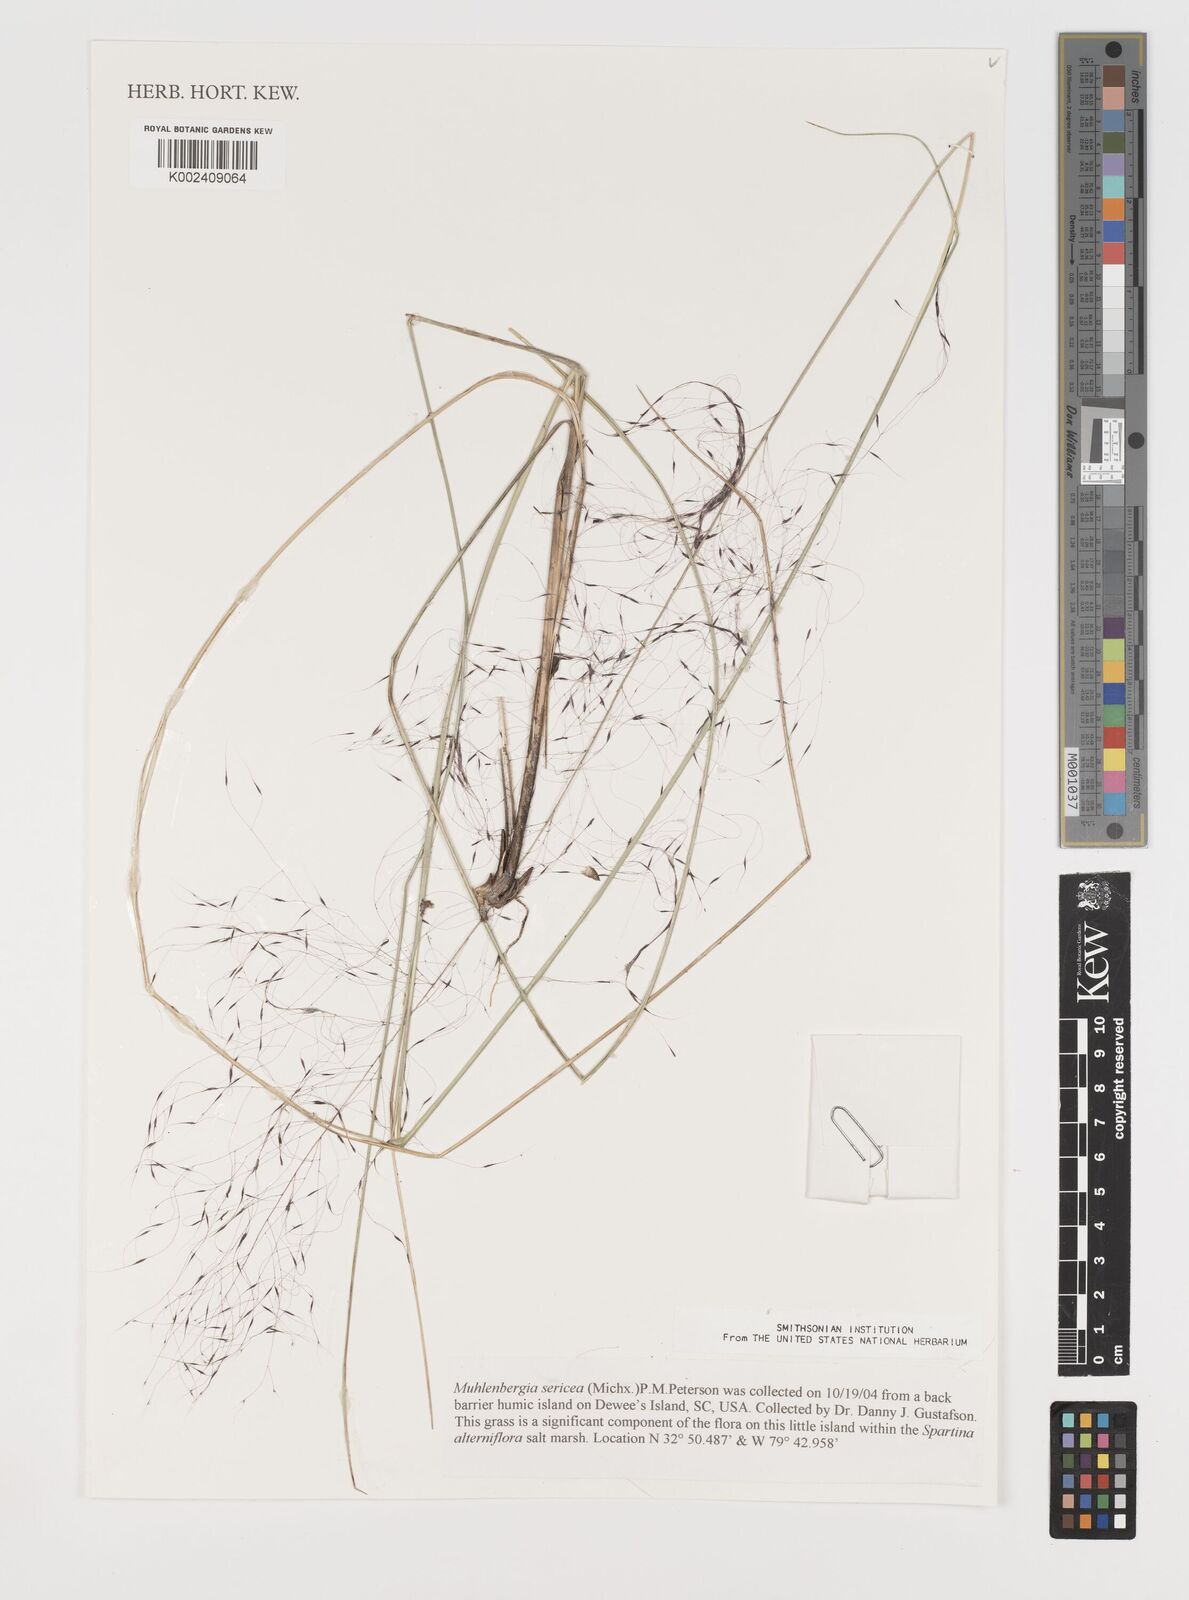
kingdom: Plantae
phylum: Tracheophyta
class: Liliopsida
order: Poales
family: Poaceae
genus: Muhlenbergia
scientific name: Muhlenbergia sericea
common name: Dune-hair grass
